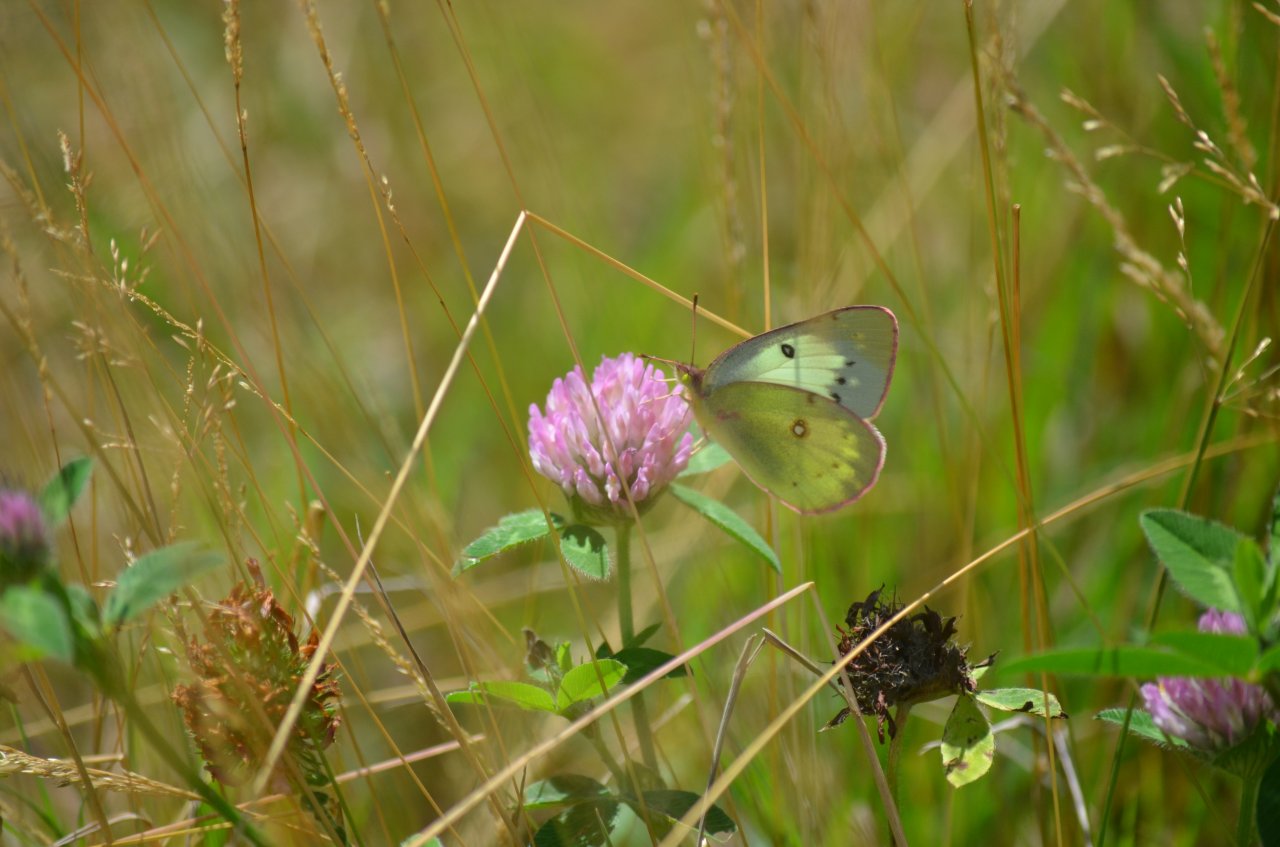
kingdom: Animalia
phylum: Arthropoda
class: Insecta
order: Lepidoptera
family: Pieridae
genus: Colias
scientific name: Colias philodice
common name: Clouded Sulphur
